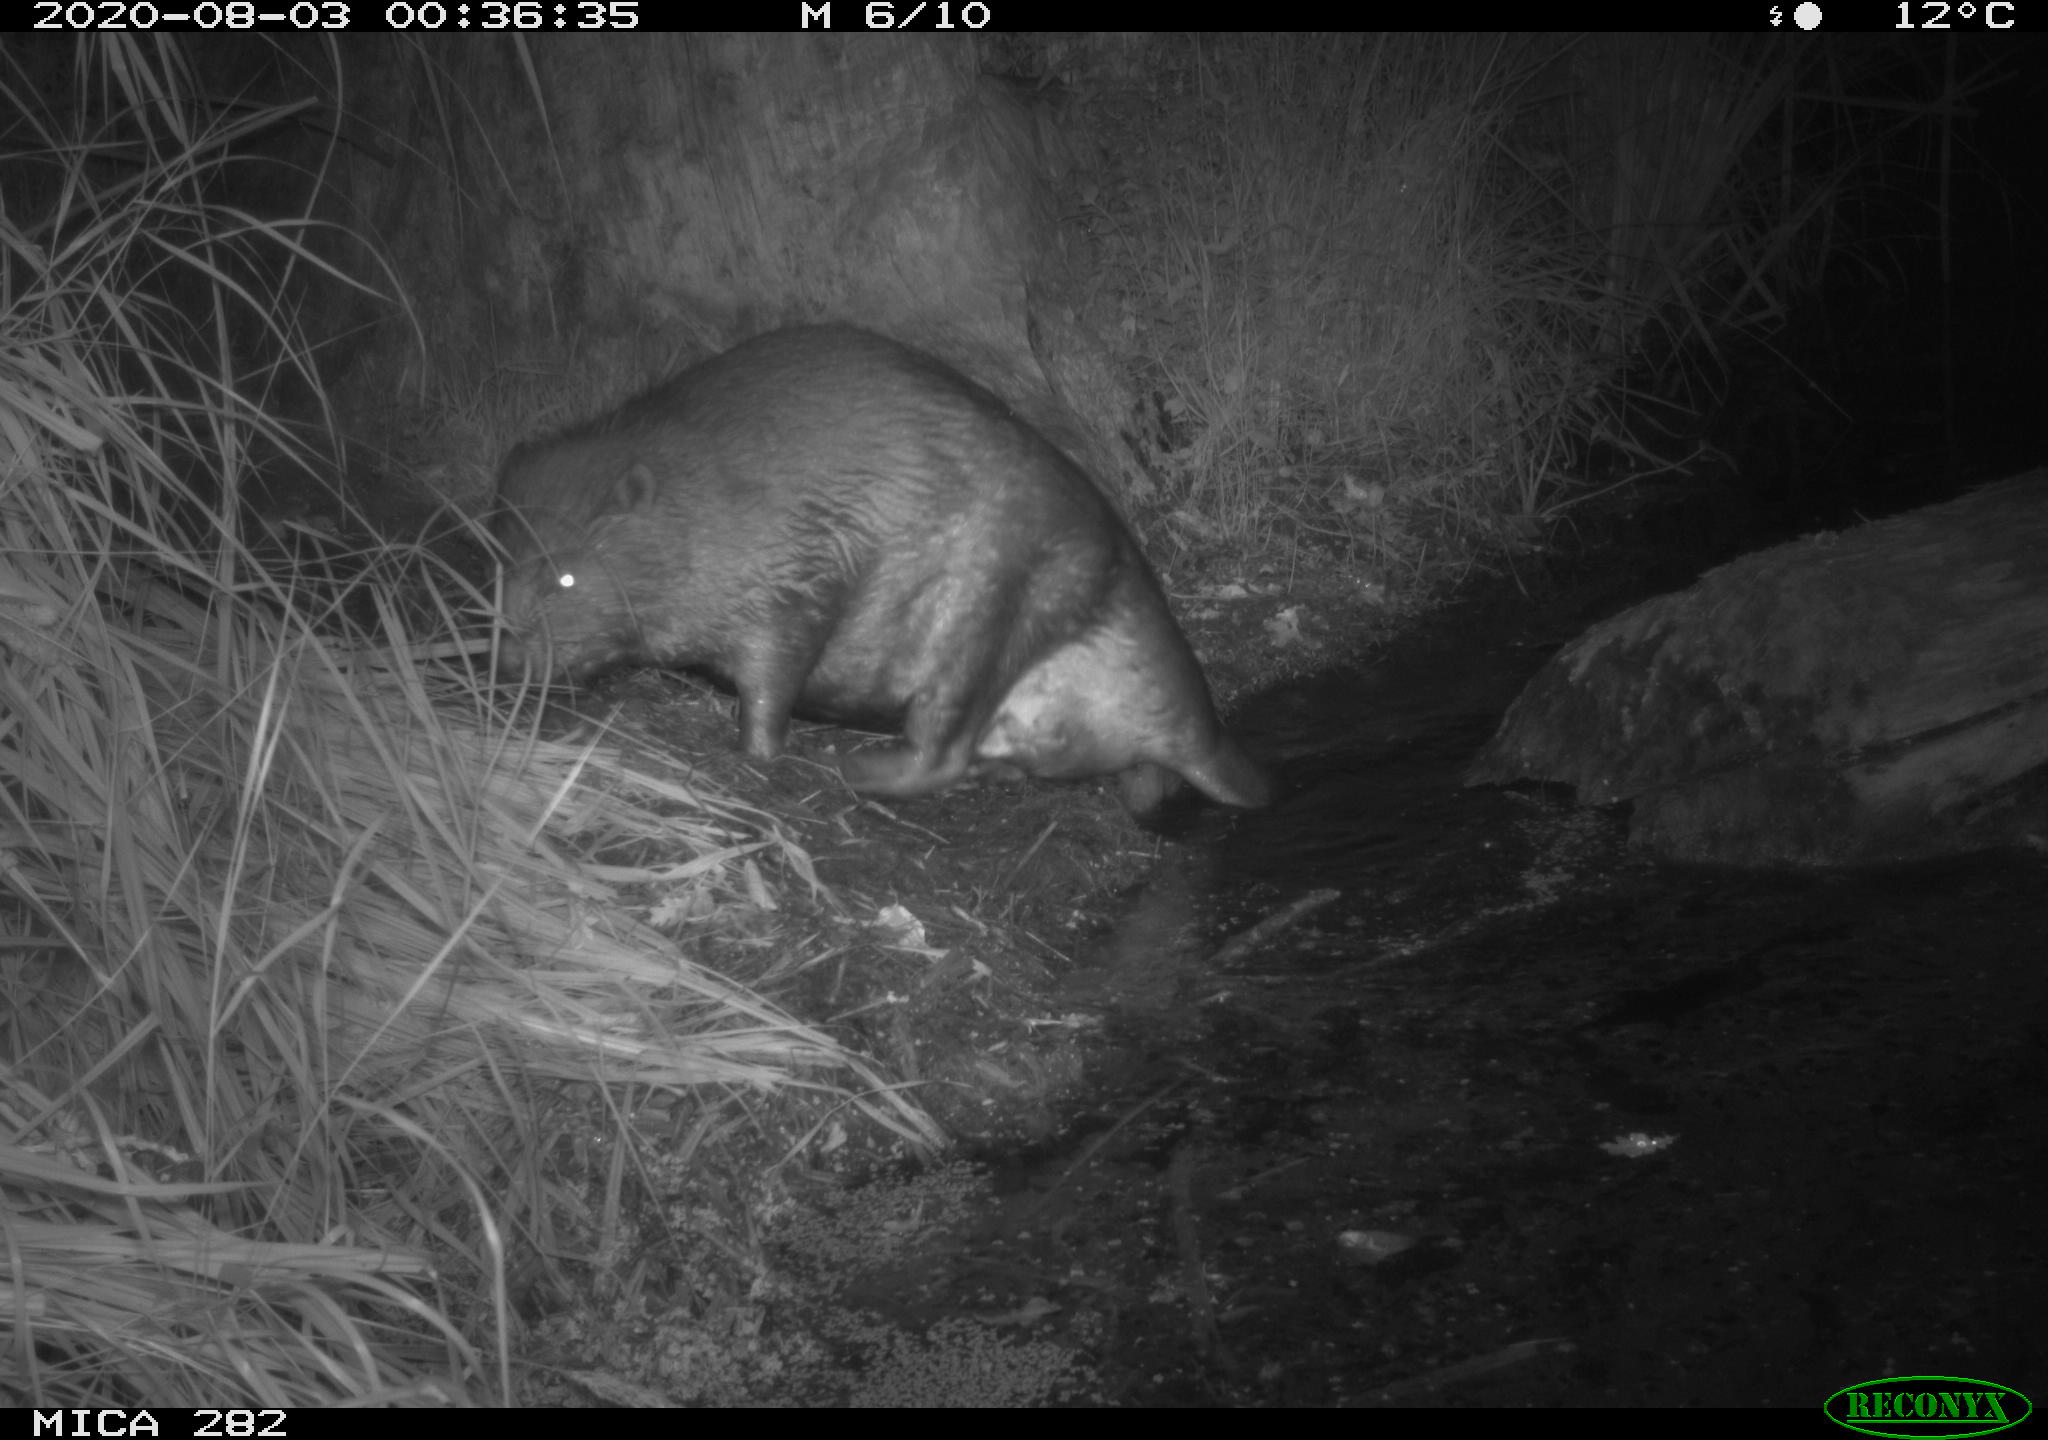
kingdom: Animalia
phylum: Chordata
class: Mammalia
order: Rodentia
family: Castoridae
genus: Castor
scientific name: Castor fiber
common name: Eurasian beaver
